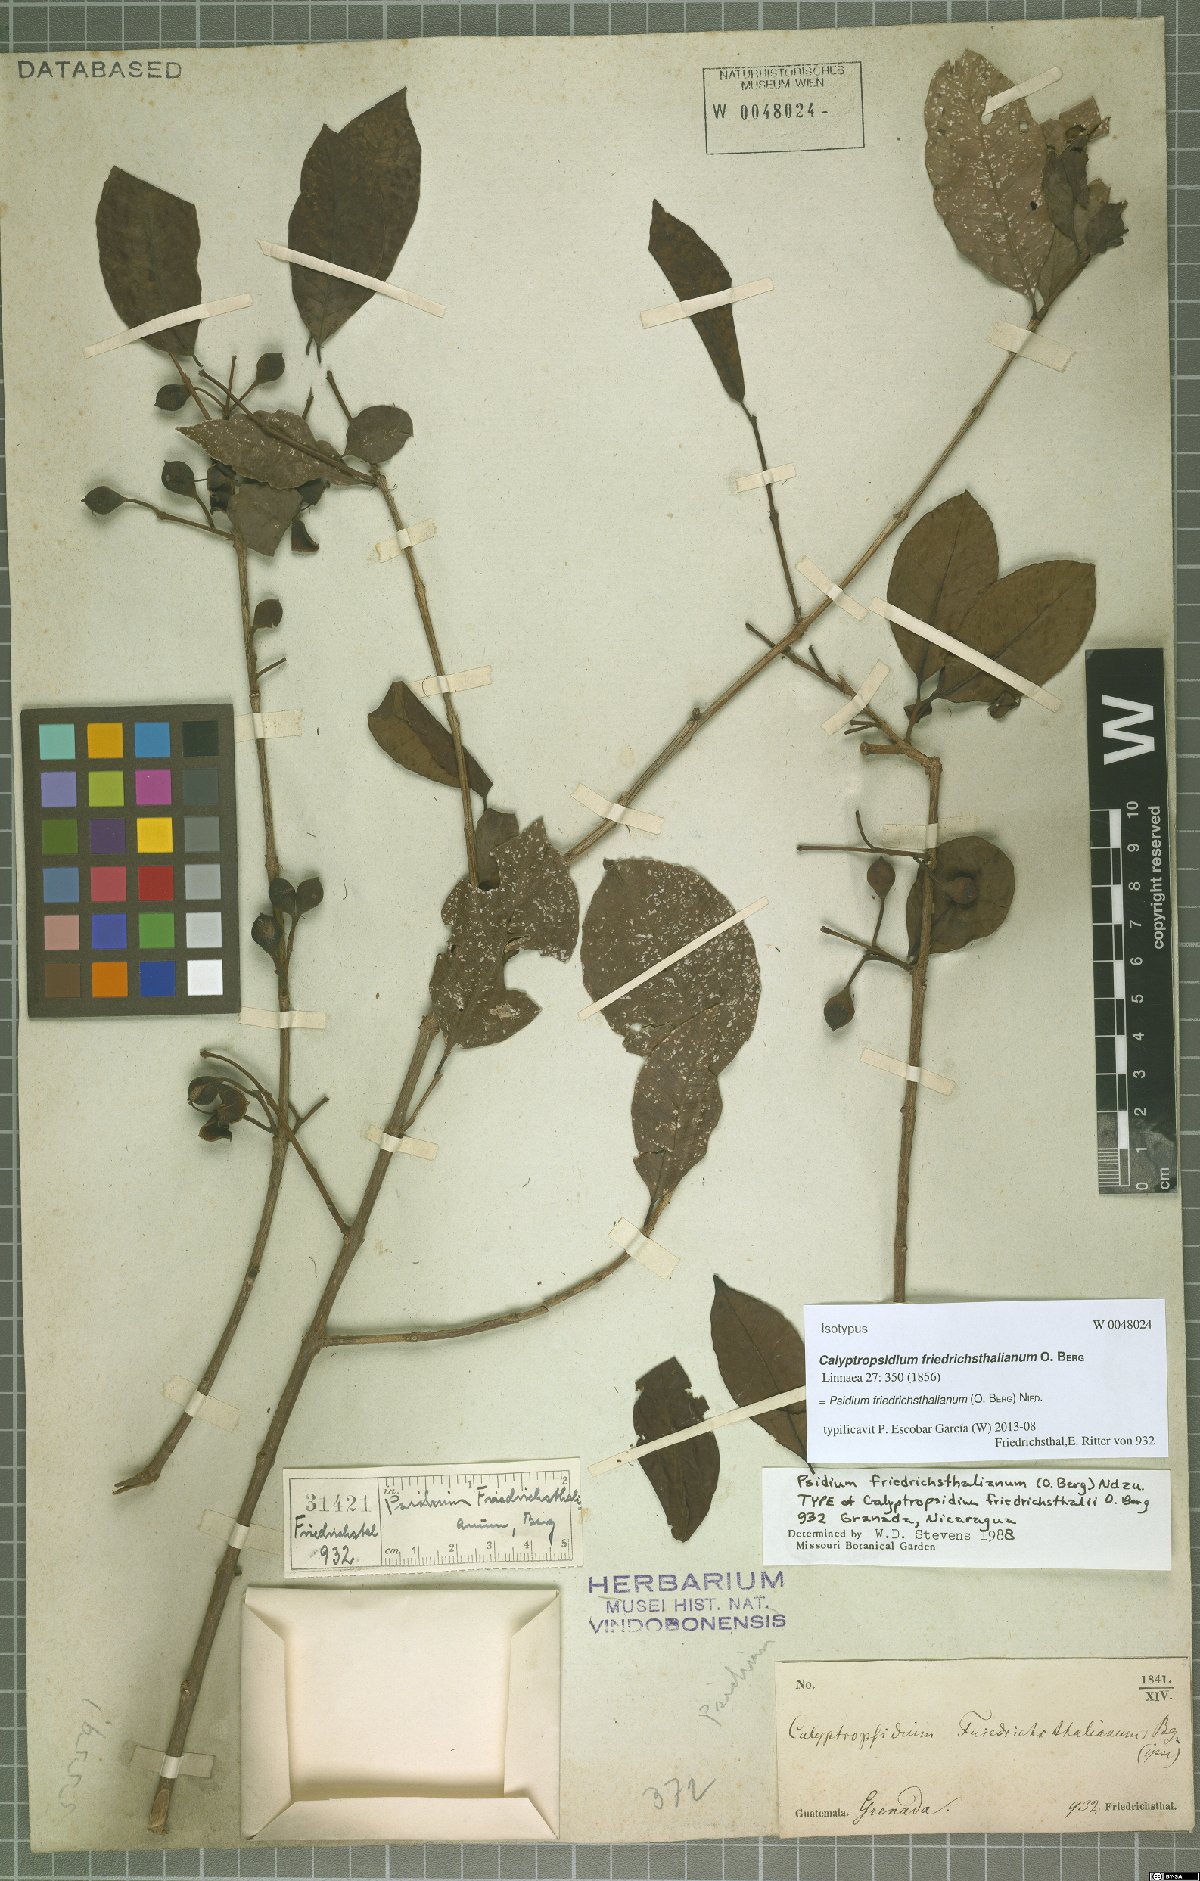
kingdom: Plantae
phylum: Tracheophyta
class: Magnoliopsida
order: Myrtales
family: Myrtaceae
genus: Psidium
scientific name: Psidium friedrichsthalianum
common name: Costa rican guava
